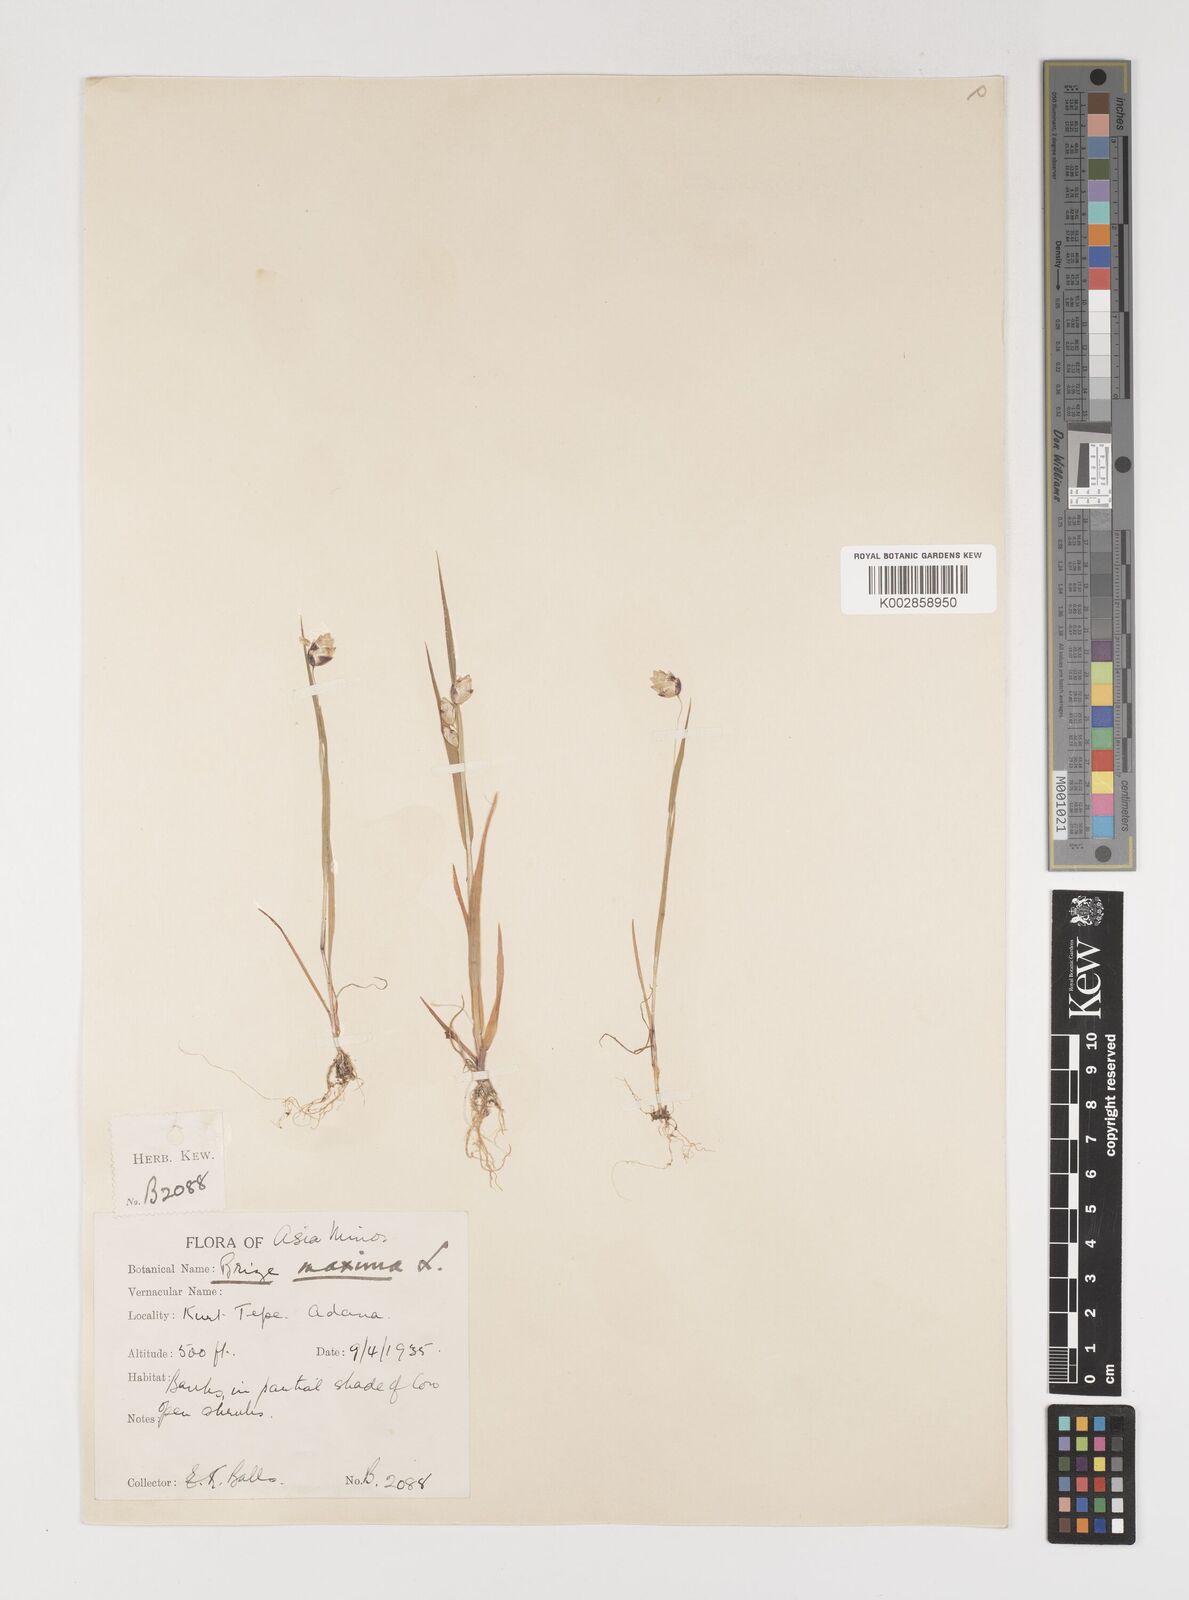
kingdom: Plantae
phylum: Tracheophyta
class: Liliopsida
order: Poales
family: Poaceae
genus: Briza
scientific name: Briza maxima
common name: Big quakinggrass
